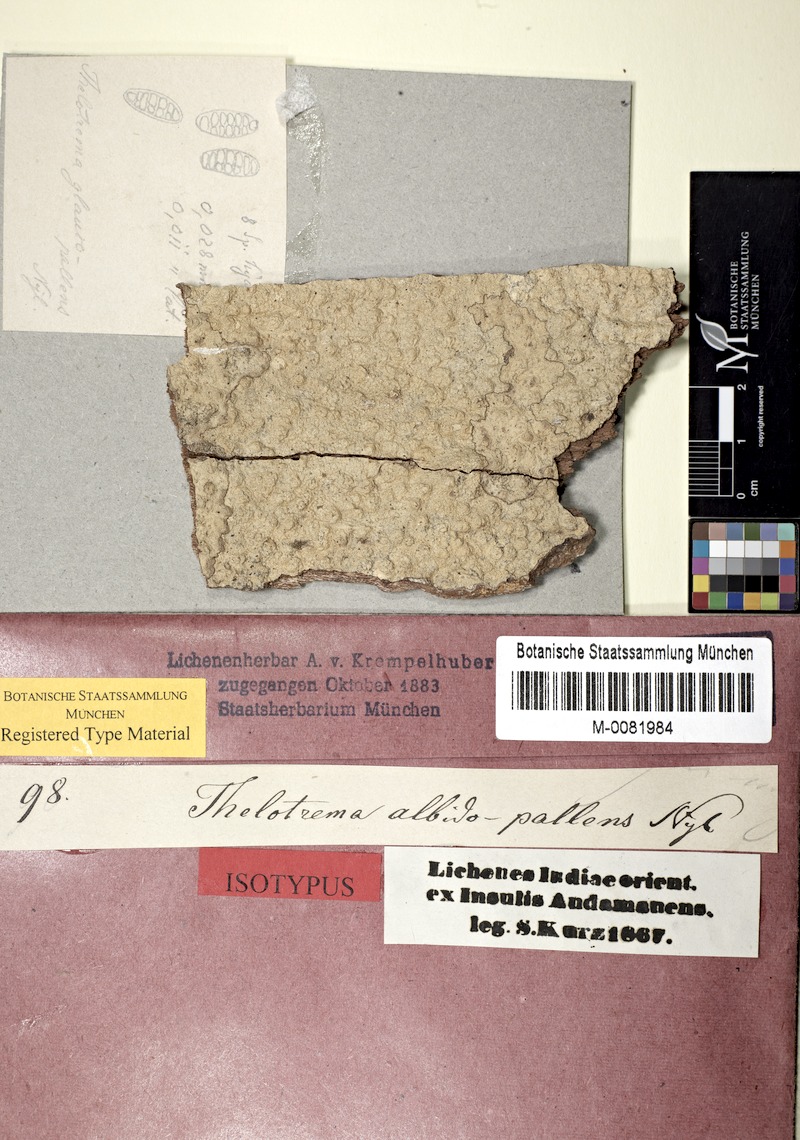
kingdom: Fungi
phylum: Ascomycota
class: Lecanoromycetes
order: Ostropales
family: Graphidaceae
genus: Thelotrema
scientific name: Thelotrema albidopallens
